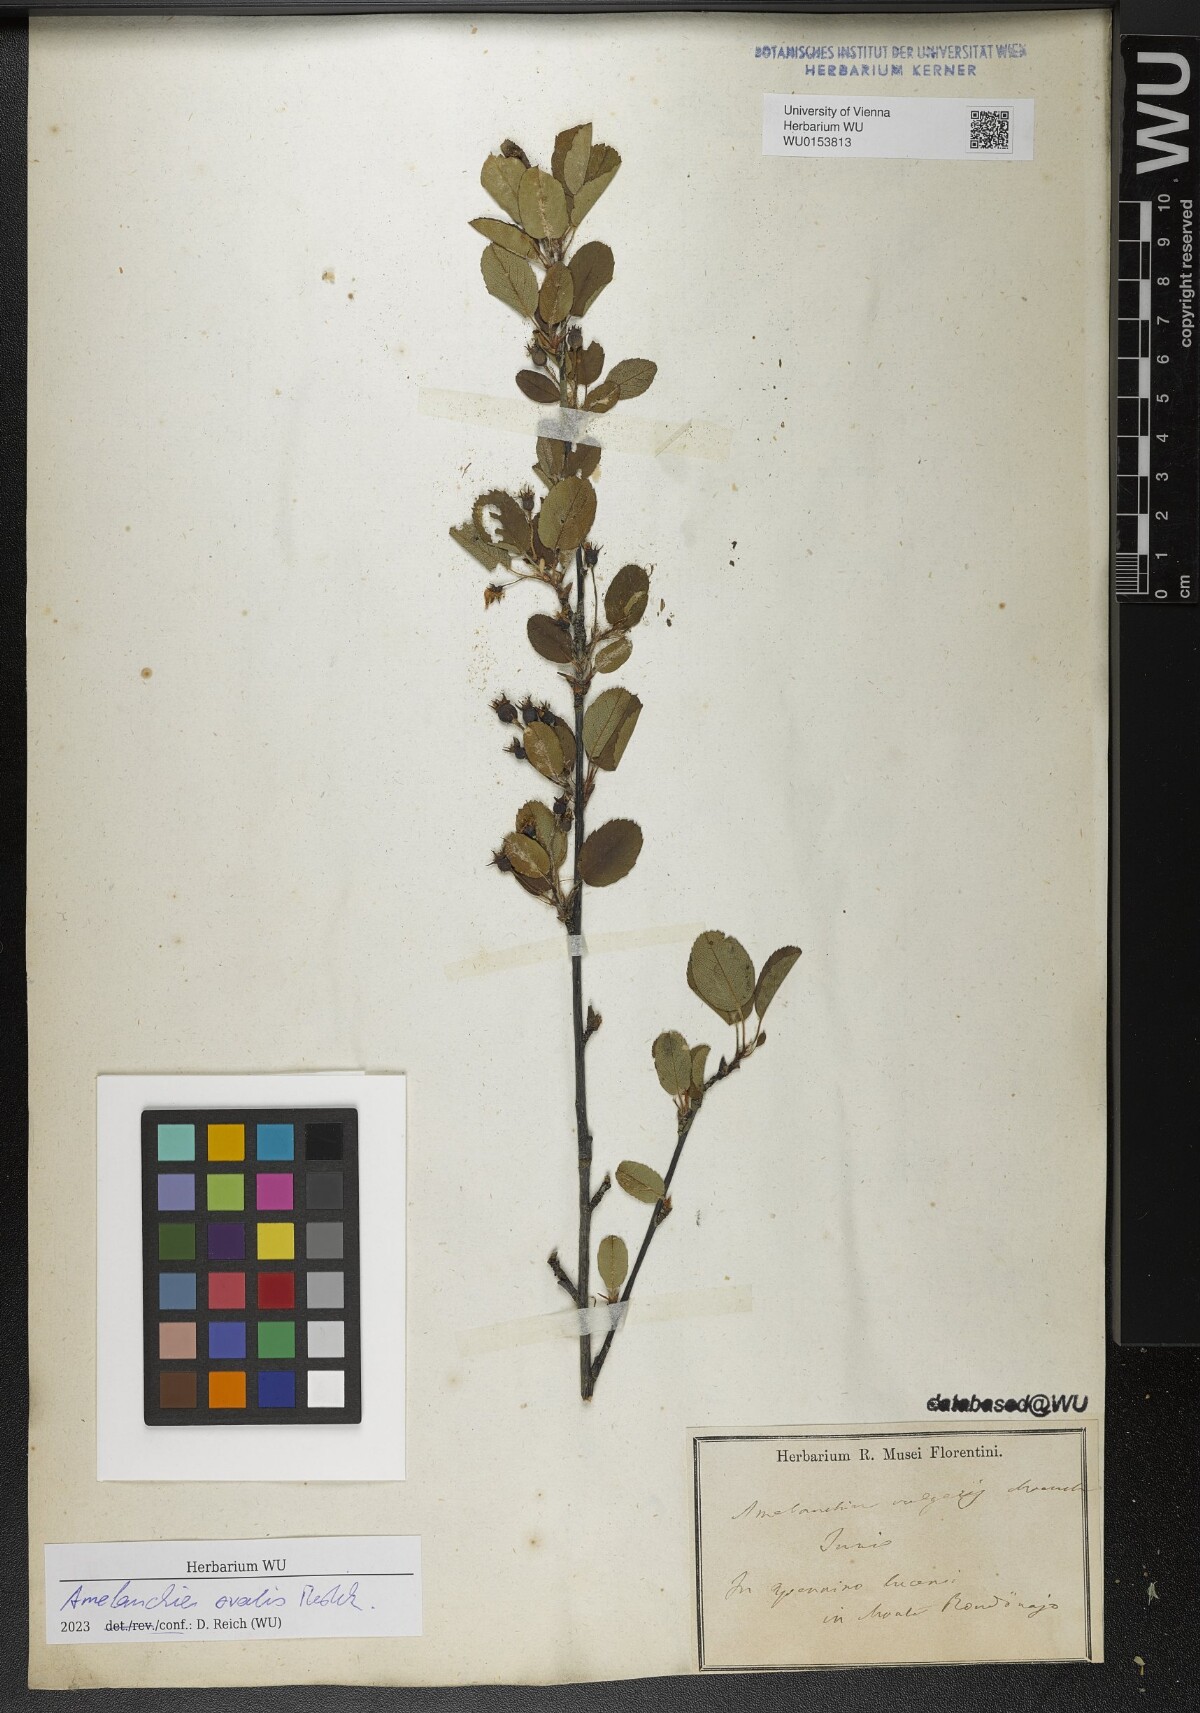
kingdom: Plantae
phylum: Tracheophyta
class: Magnoliopsida
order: Rosales
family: Rosaceae
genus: Amelanchier
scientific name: Amelanchier ovalis
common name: Serviceberry
